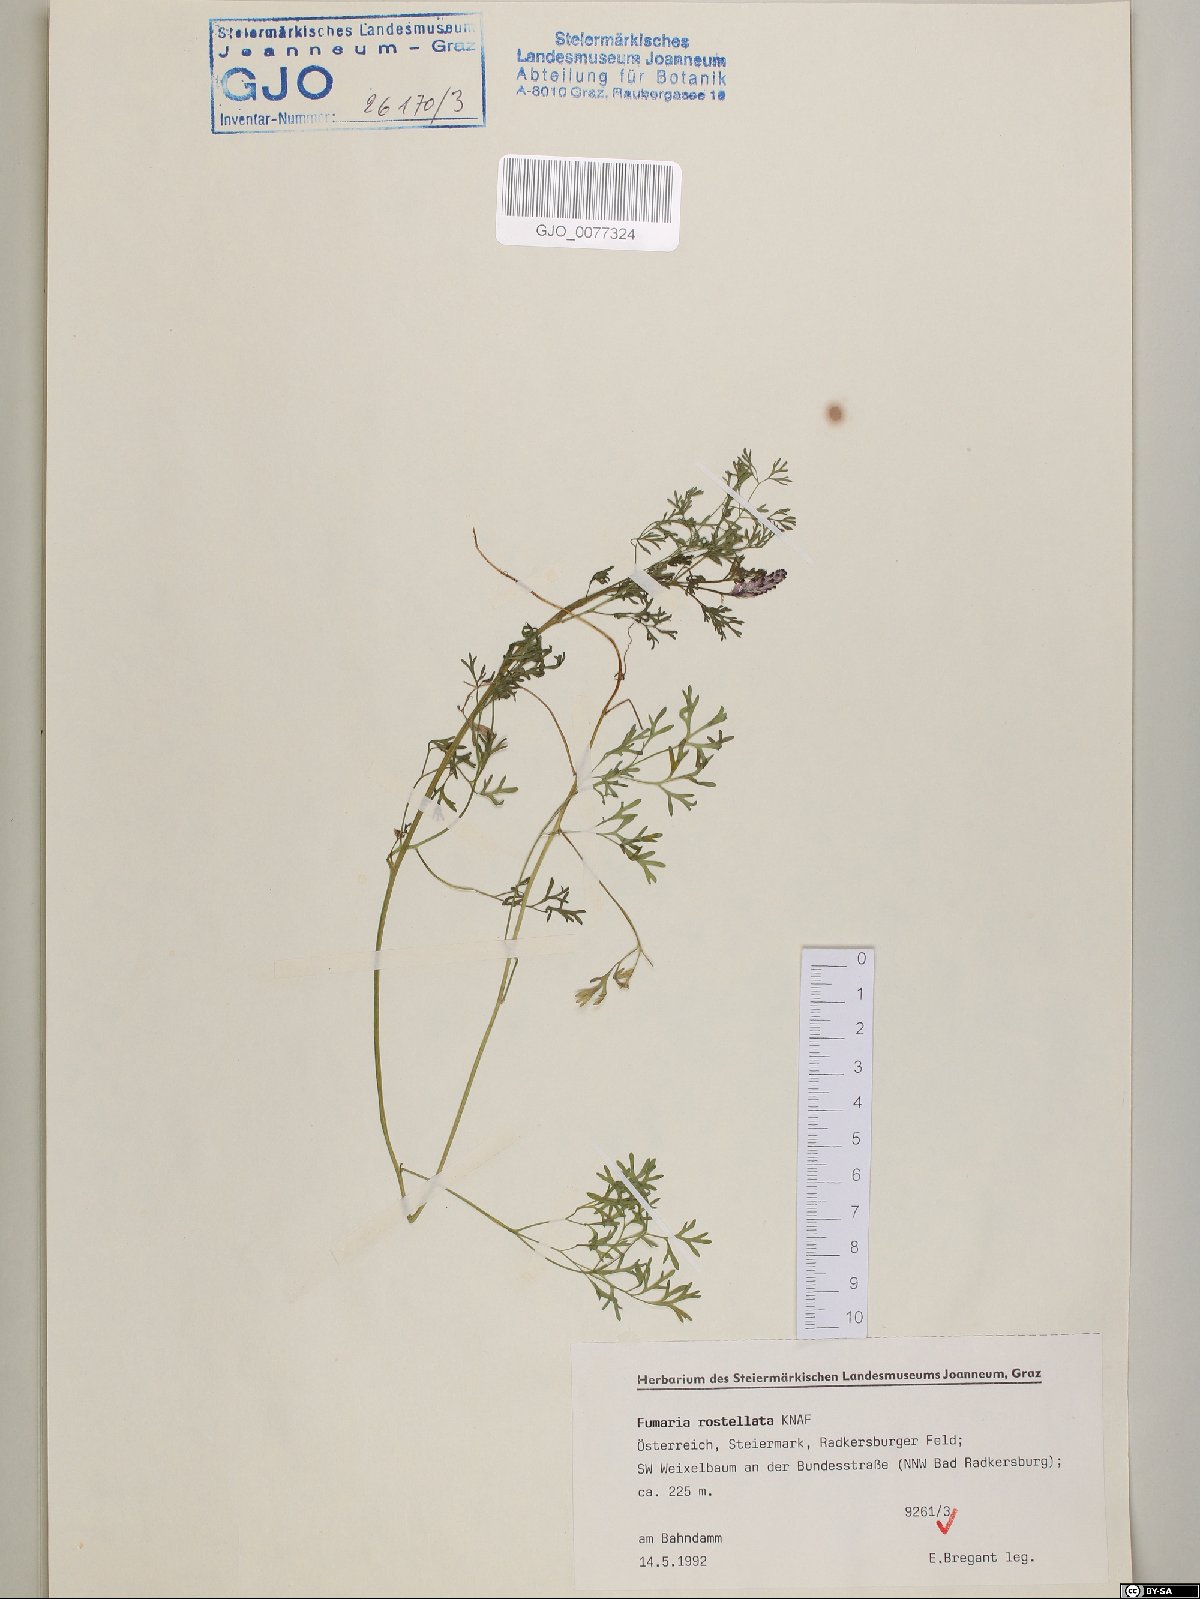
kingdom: Plantae
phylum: Tracheophyta
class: Magnoliopsida
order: Ranunculales
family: Papaveraceae
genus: Fumaria
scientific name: Fumaria rostellata
